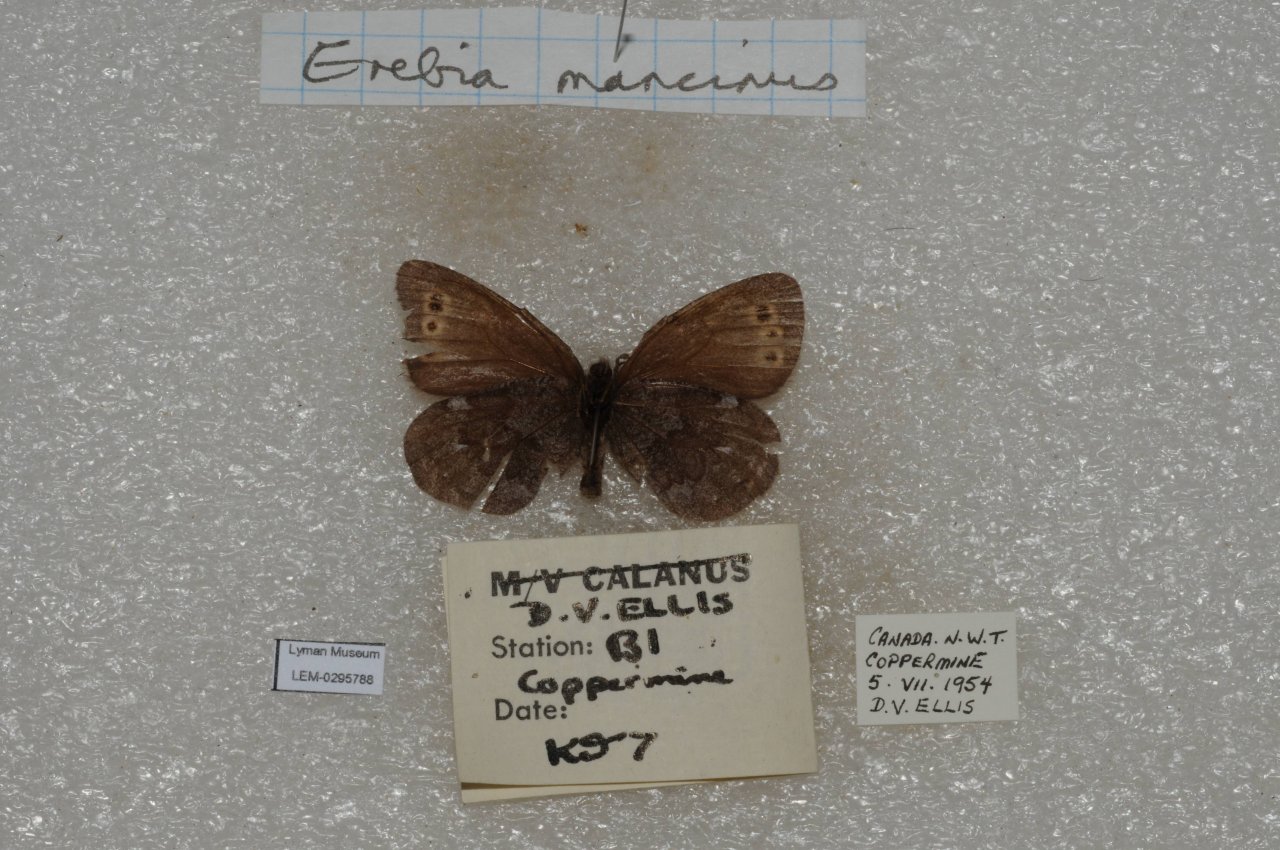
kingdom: Animalia
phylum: Arthropoda
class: Insecta
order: Lepidoptera
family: Nymphalidae
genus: Erebia
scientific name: Erebia disa
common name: Disa Alpine
